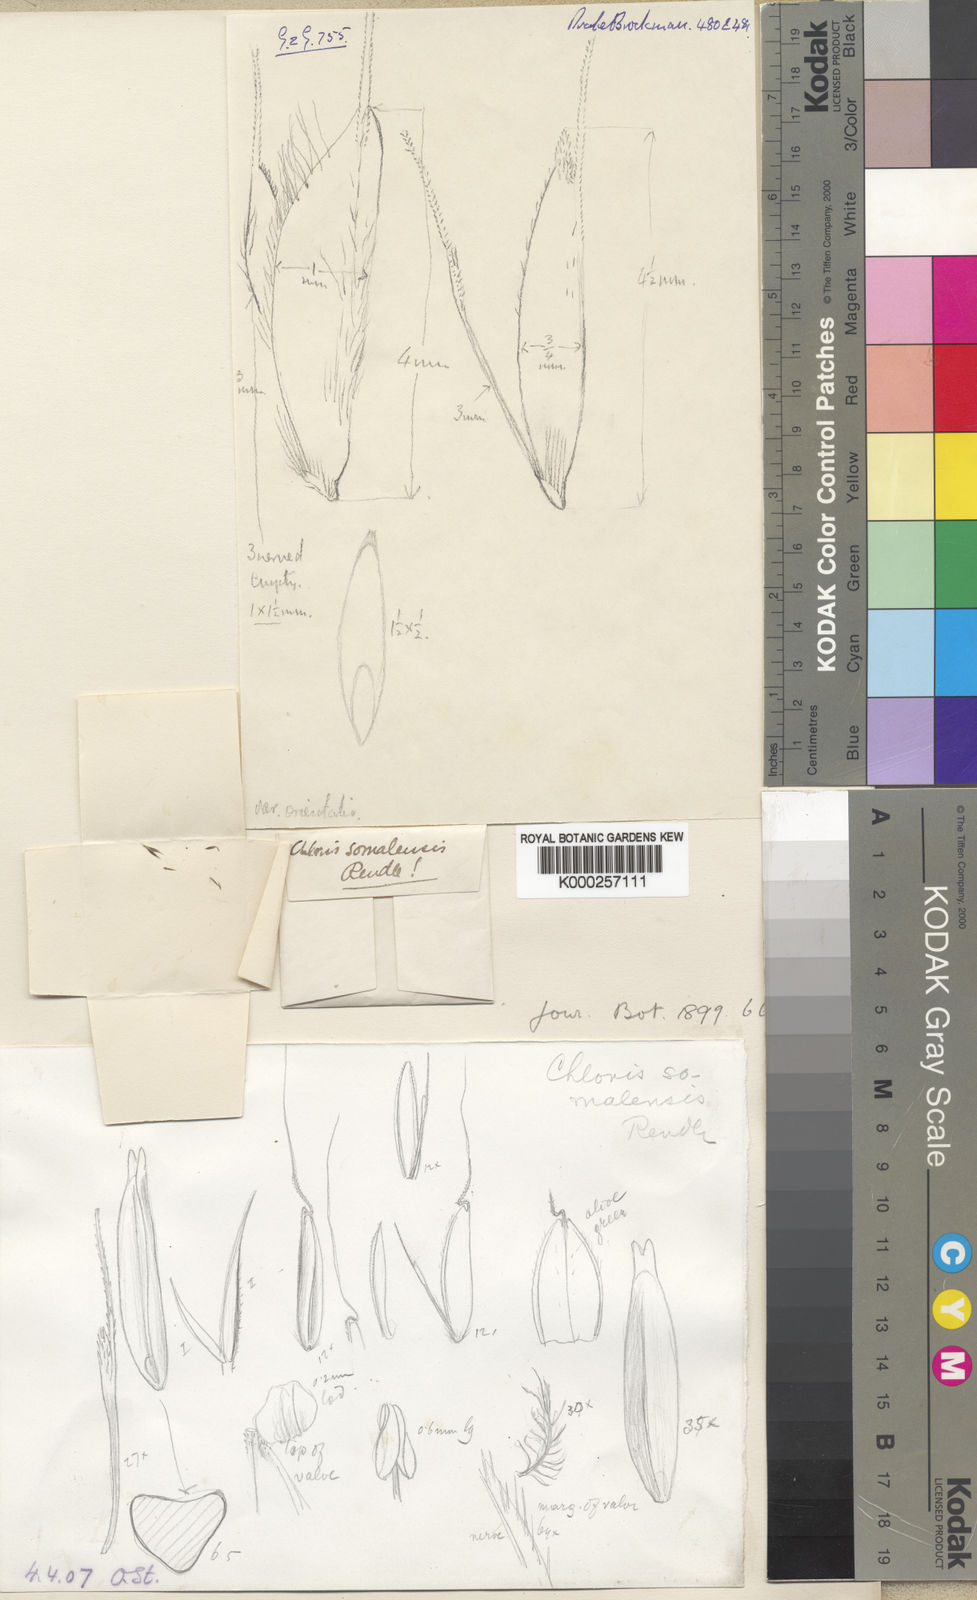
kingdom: Plantae
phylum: Tracheophyta
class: Liliopsida
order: Poales
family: Poaceae
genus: Chloris
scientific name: Chloris mensensis
